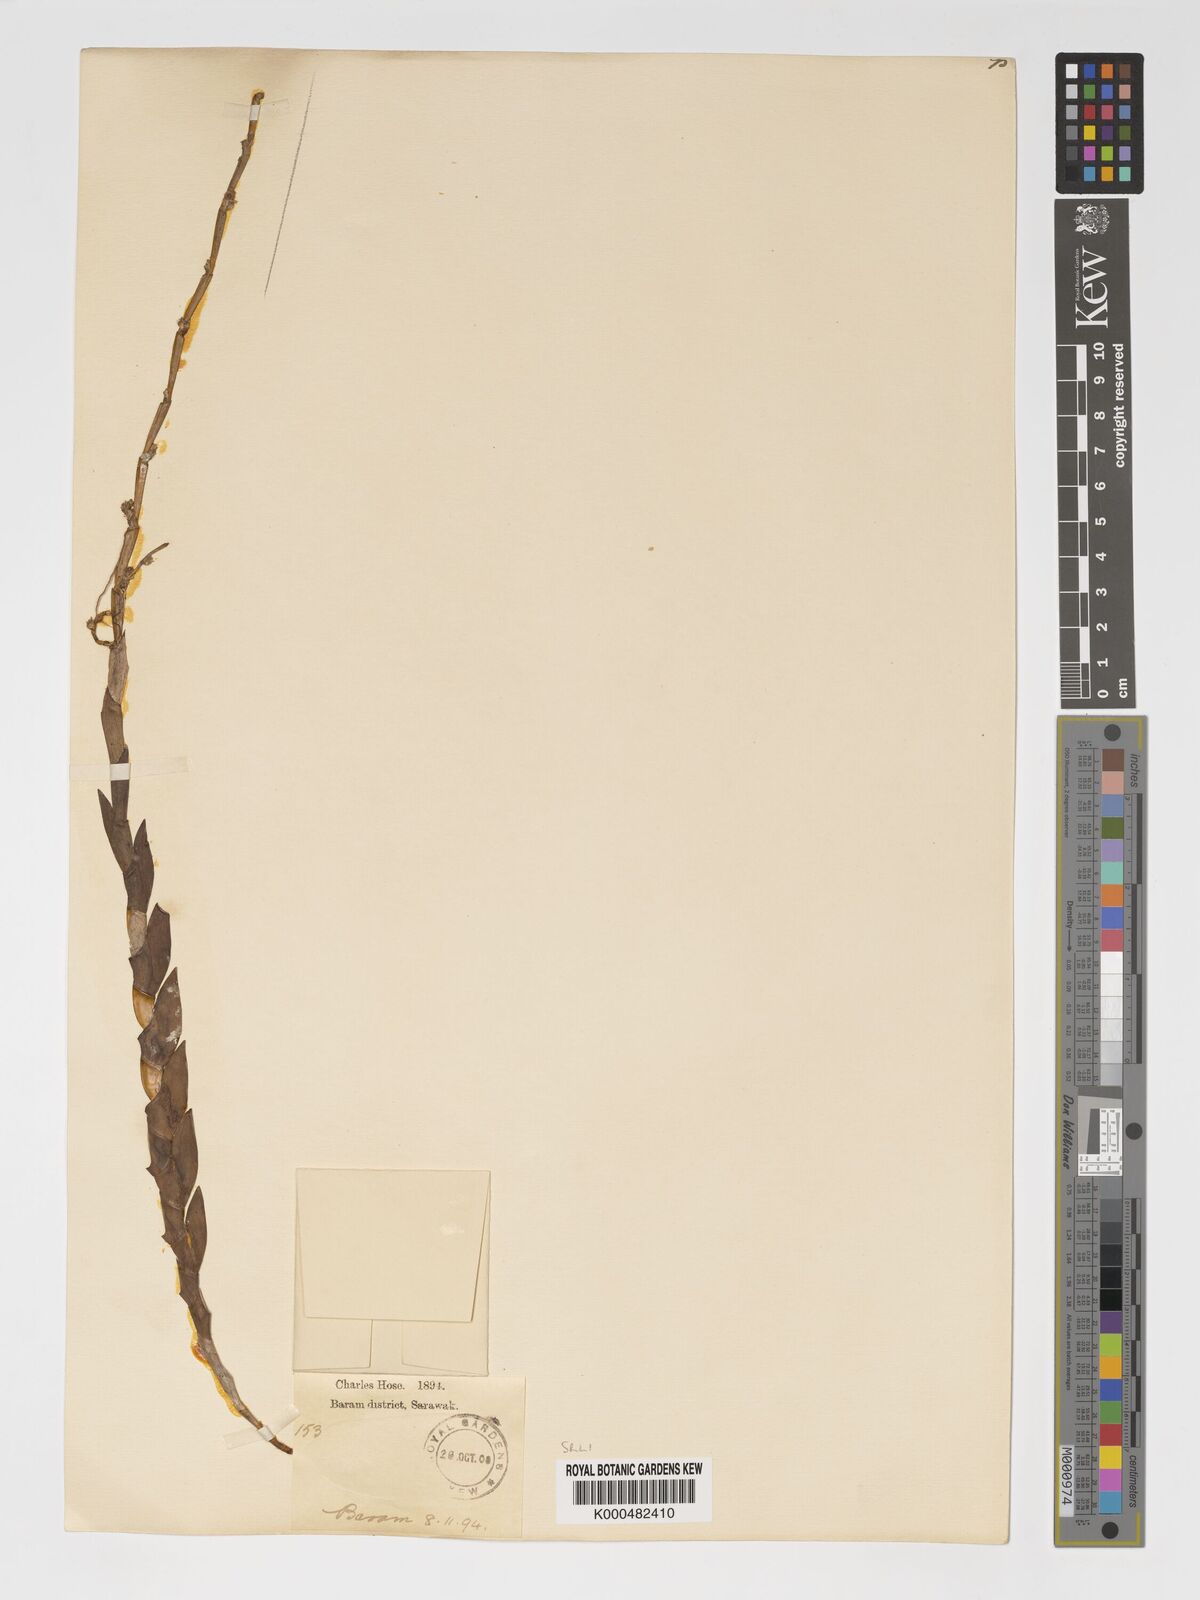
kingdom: Plantae
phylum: Tracheophyta
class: Liliopsida
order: Asparagales
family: Orchidaceae
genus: Dendrobium
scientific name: Dendrobium aloifolium
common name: Aloe-like dendrobium
